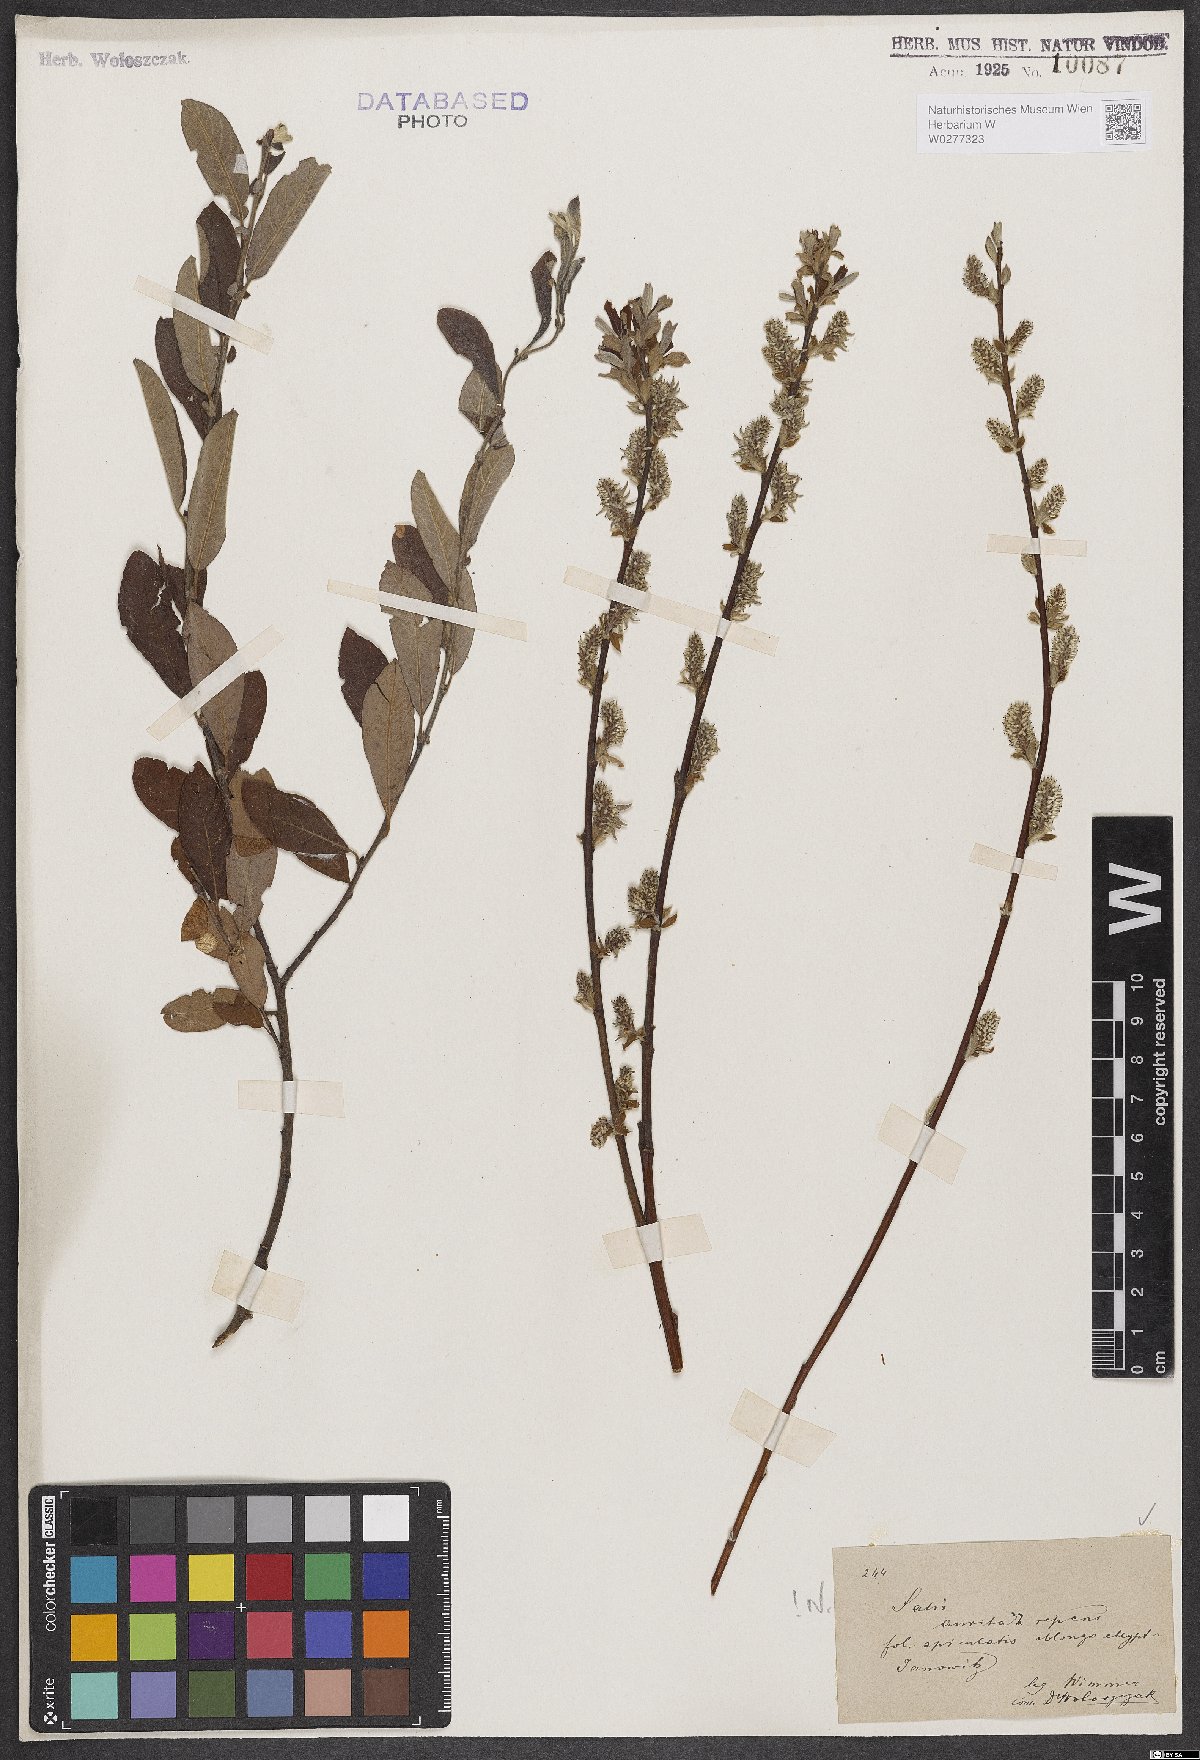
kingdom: Plantae
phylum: Tracheophyta
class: Magnoliopsida
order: Malpighiales
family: Salicaceae
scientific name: Salicaceae
